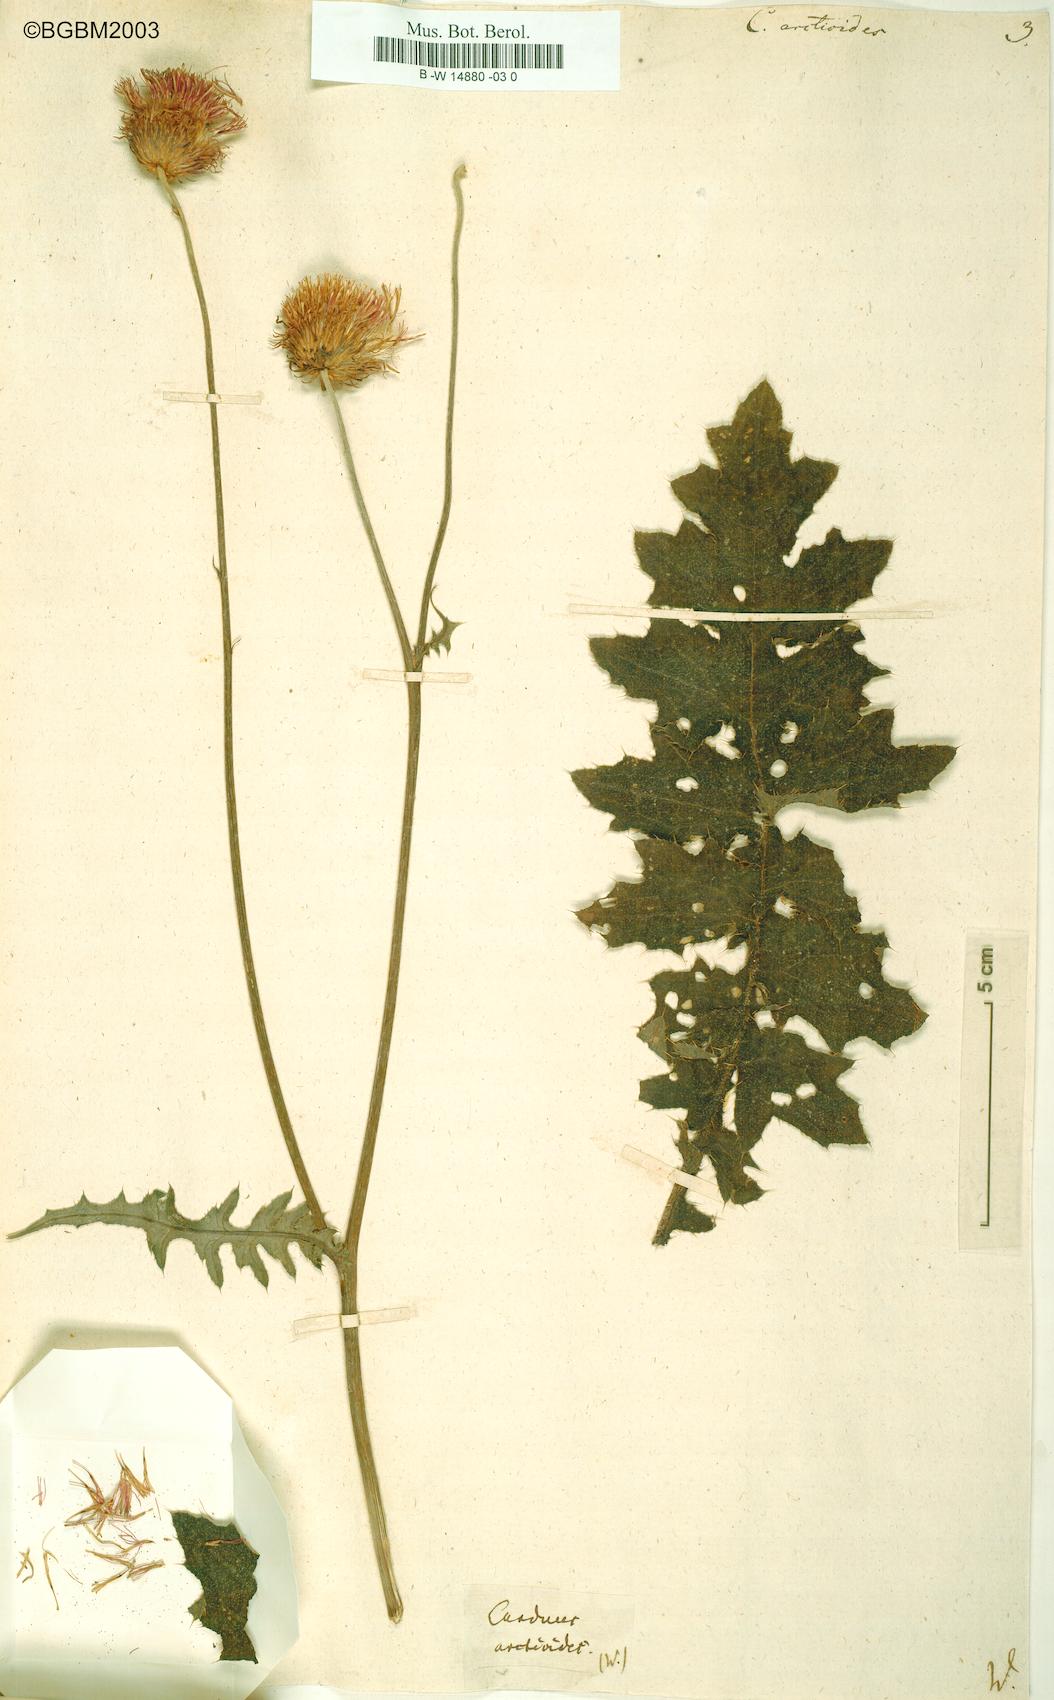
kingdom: Plantae
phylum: Tracheophyta
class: Magnoliopsida
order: Asterales
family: Asteraceae
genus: Carduus
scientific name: Carduus
